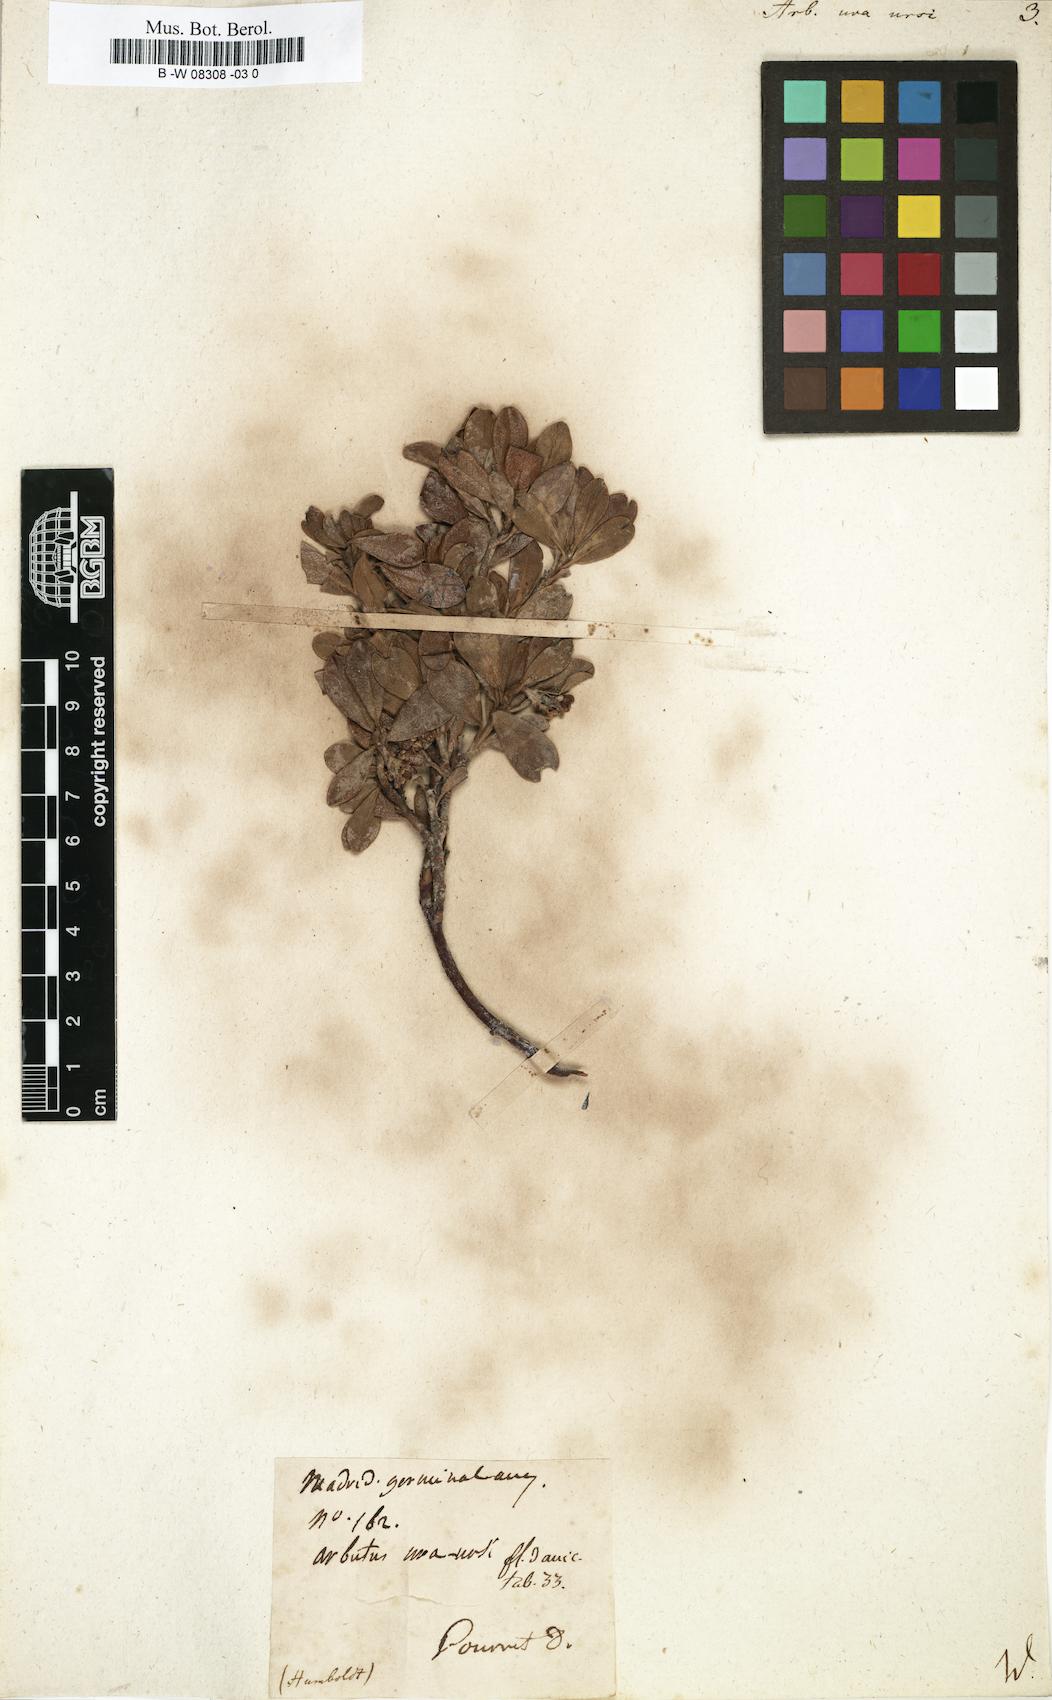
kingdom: Plantae
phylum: Tracheophyta
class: Magnoliopsida
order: Ericales
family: Ericaceae
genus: Arctostaphylos
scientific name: Arctostaphylos uva-ursi
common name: Bearberry
